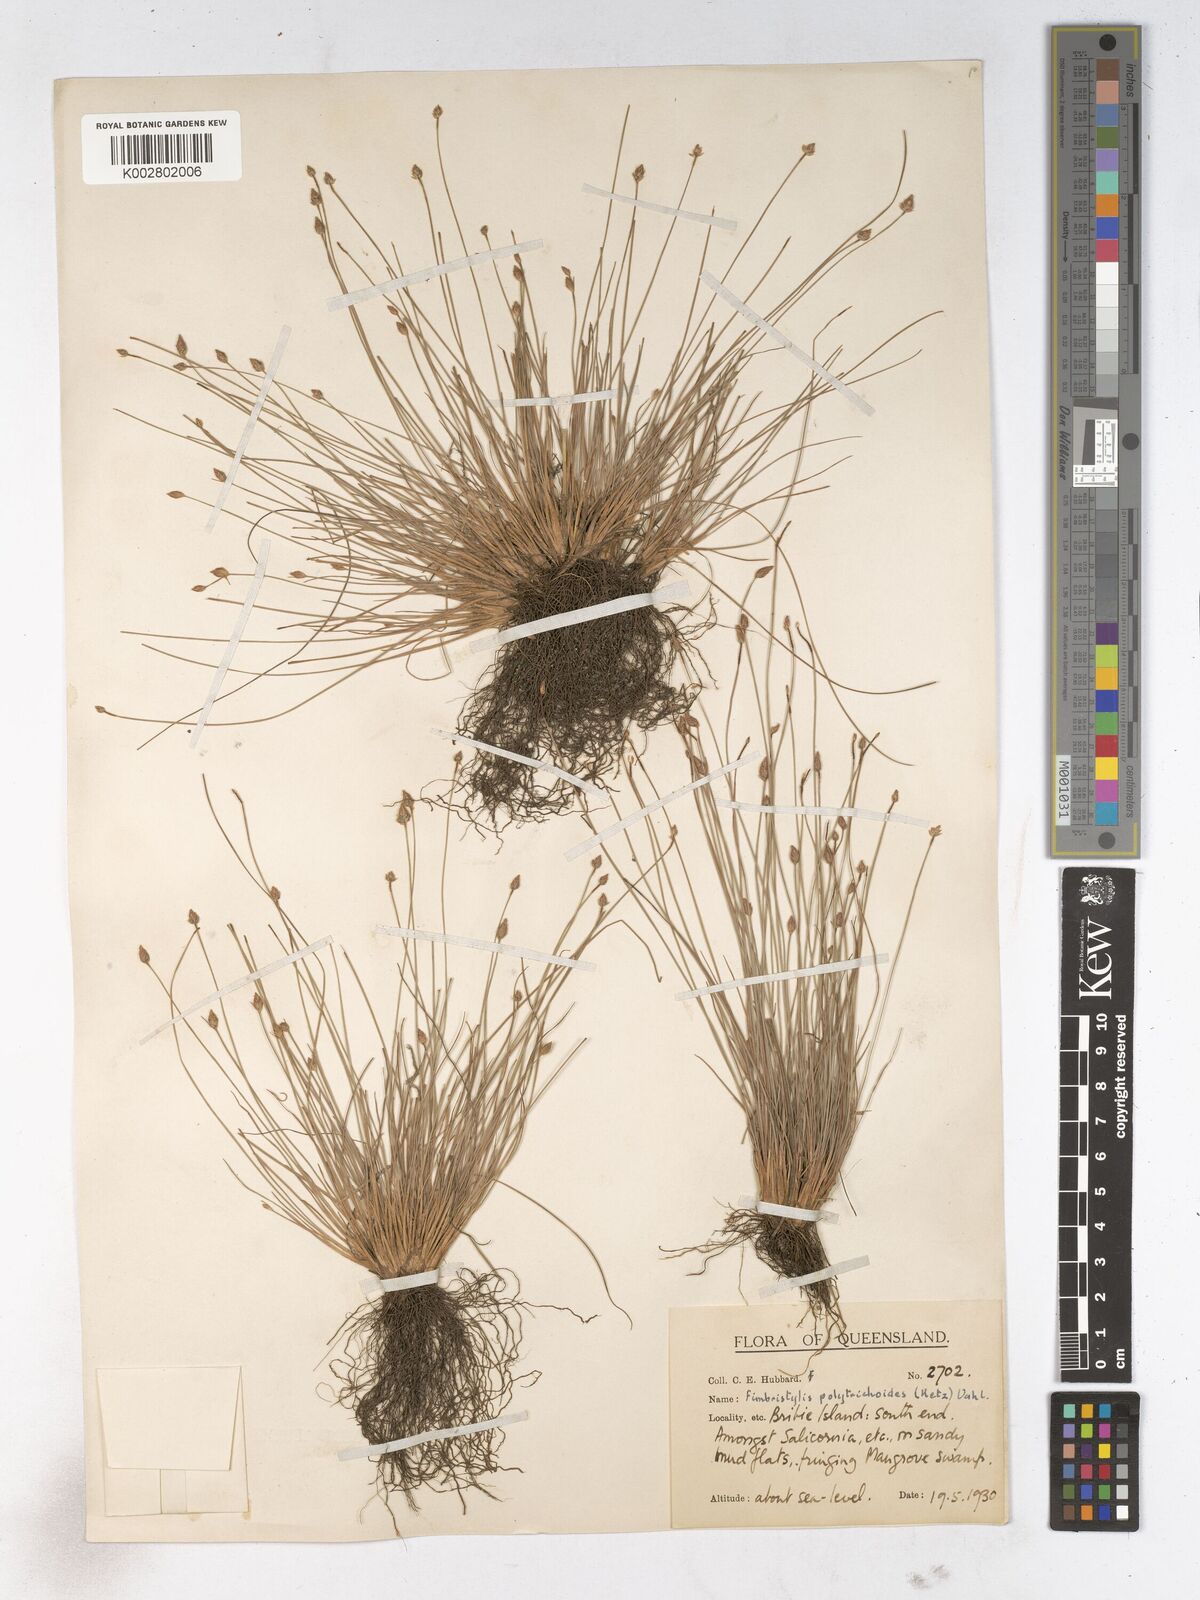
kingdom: Plantae
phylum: Tracheophyta
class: Liliopsida
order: Poales
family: Cyperaceae
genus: Fimbristylis
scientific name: Fimbristylis polytrichoides
